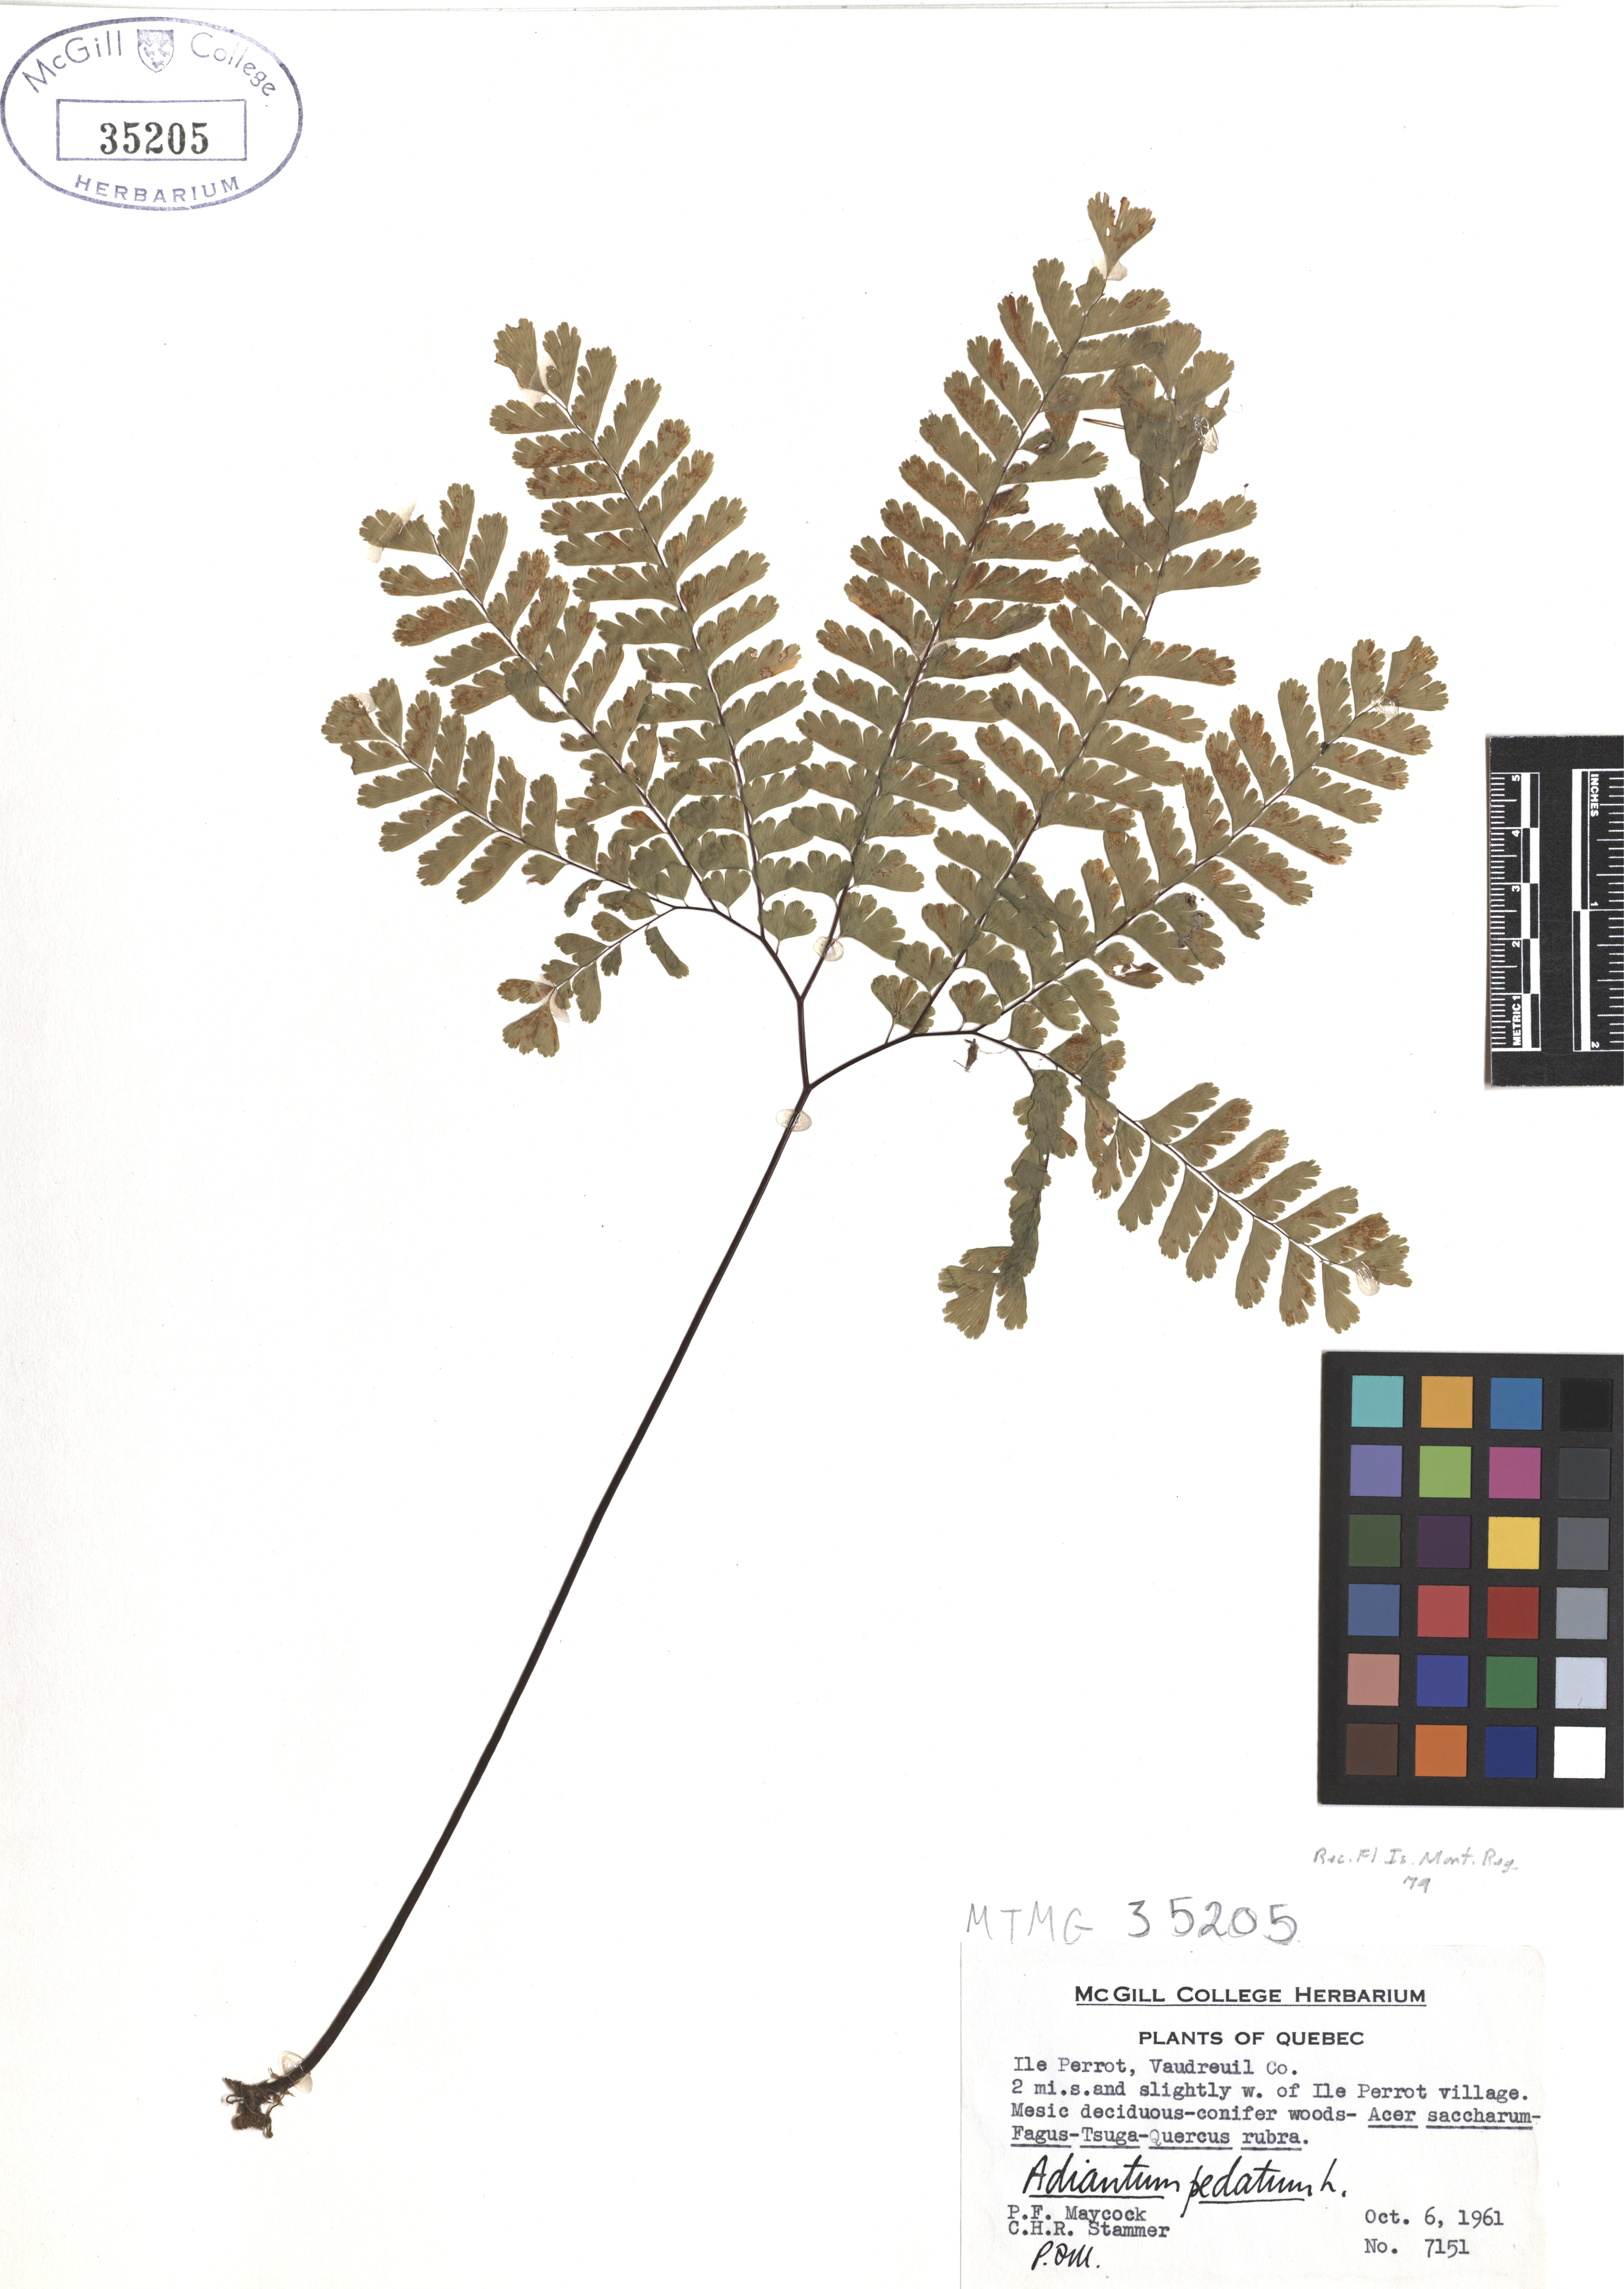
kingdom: Plantae
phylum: Tracheophyta
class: Polypodiopsida
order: Polypodiales
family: Pteridaceae
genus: Adiantum
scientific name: Adiantum pedatum
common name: Five-finger fern
